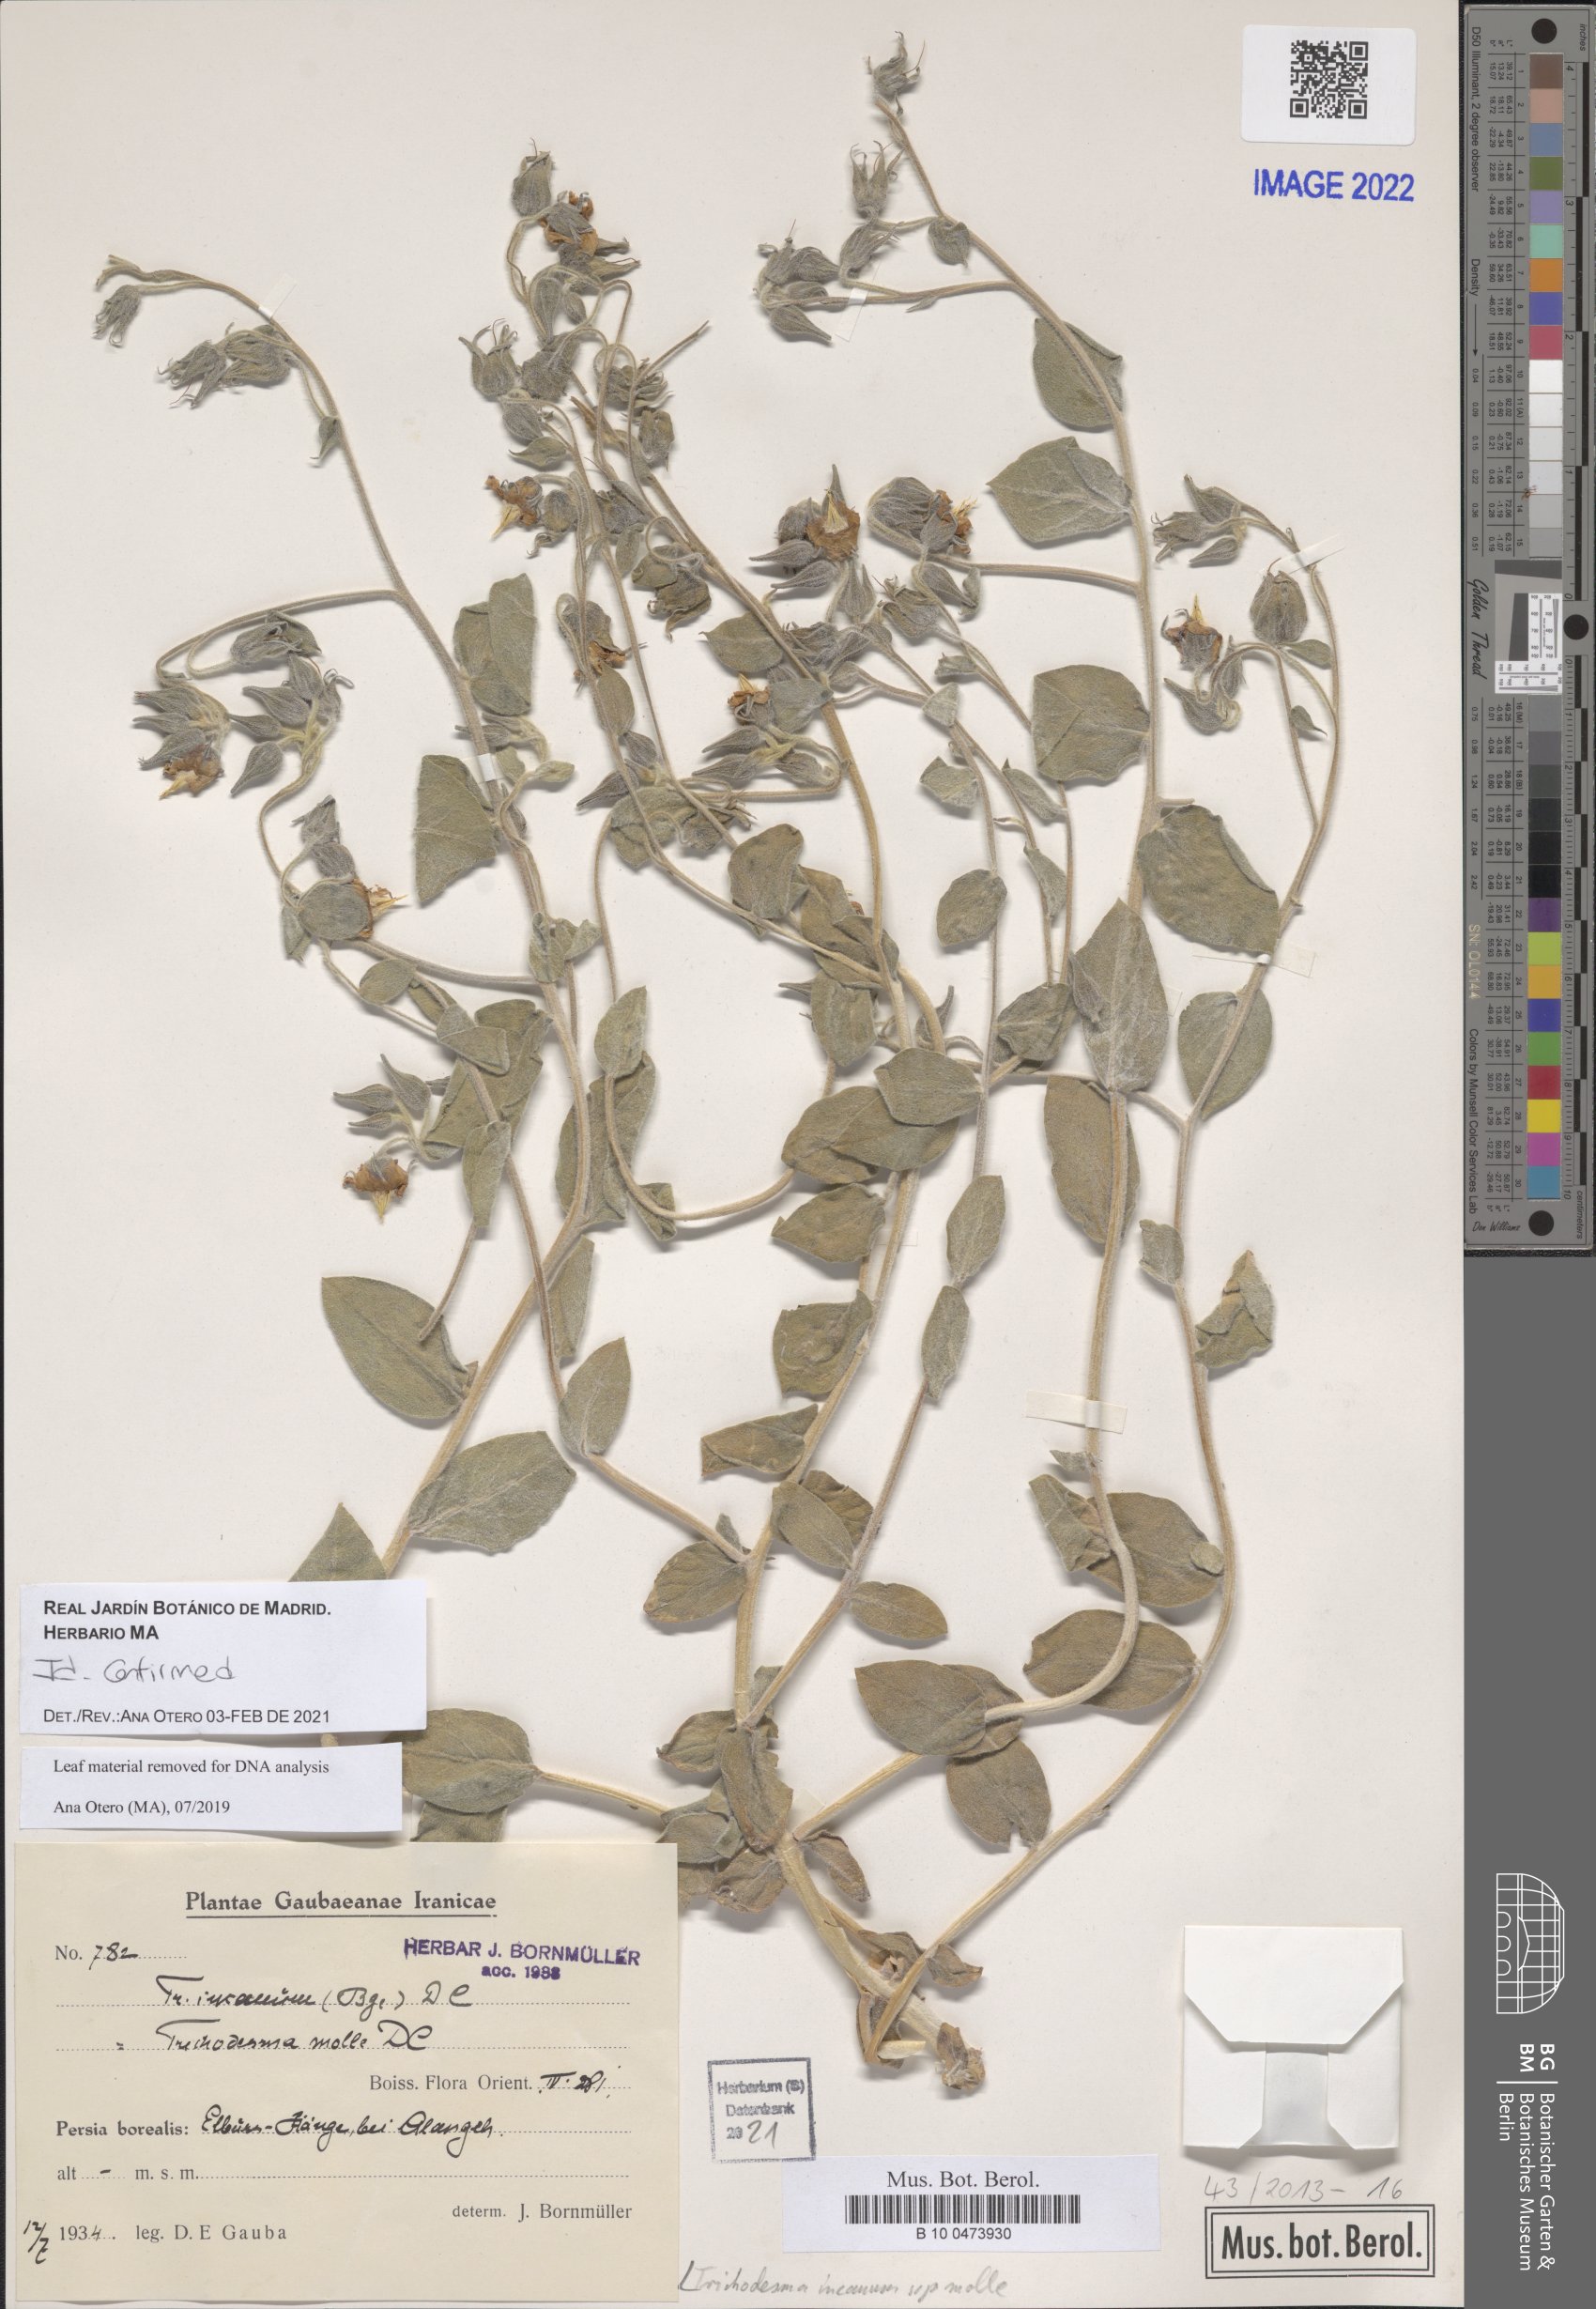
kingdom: Plantae
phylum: Tracheophyta
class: Magnoliopsida
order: Boraginales
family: Boraginaceae
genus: Trichodesma
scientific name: Trichodesma incanum
